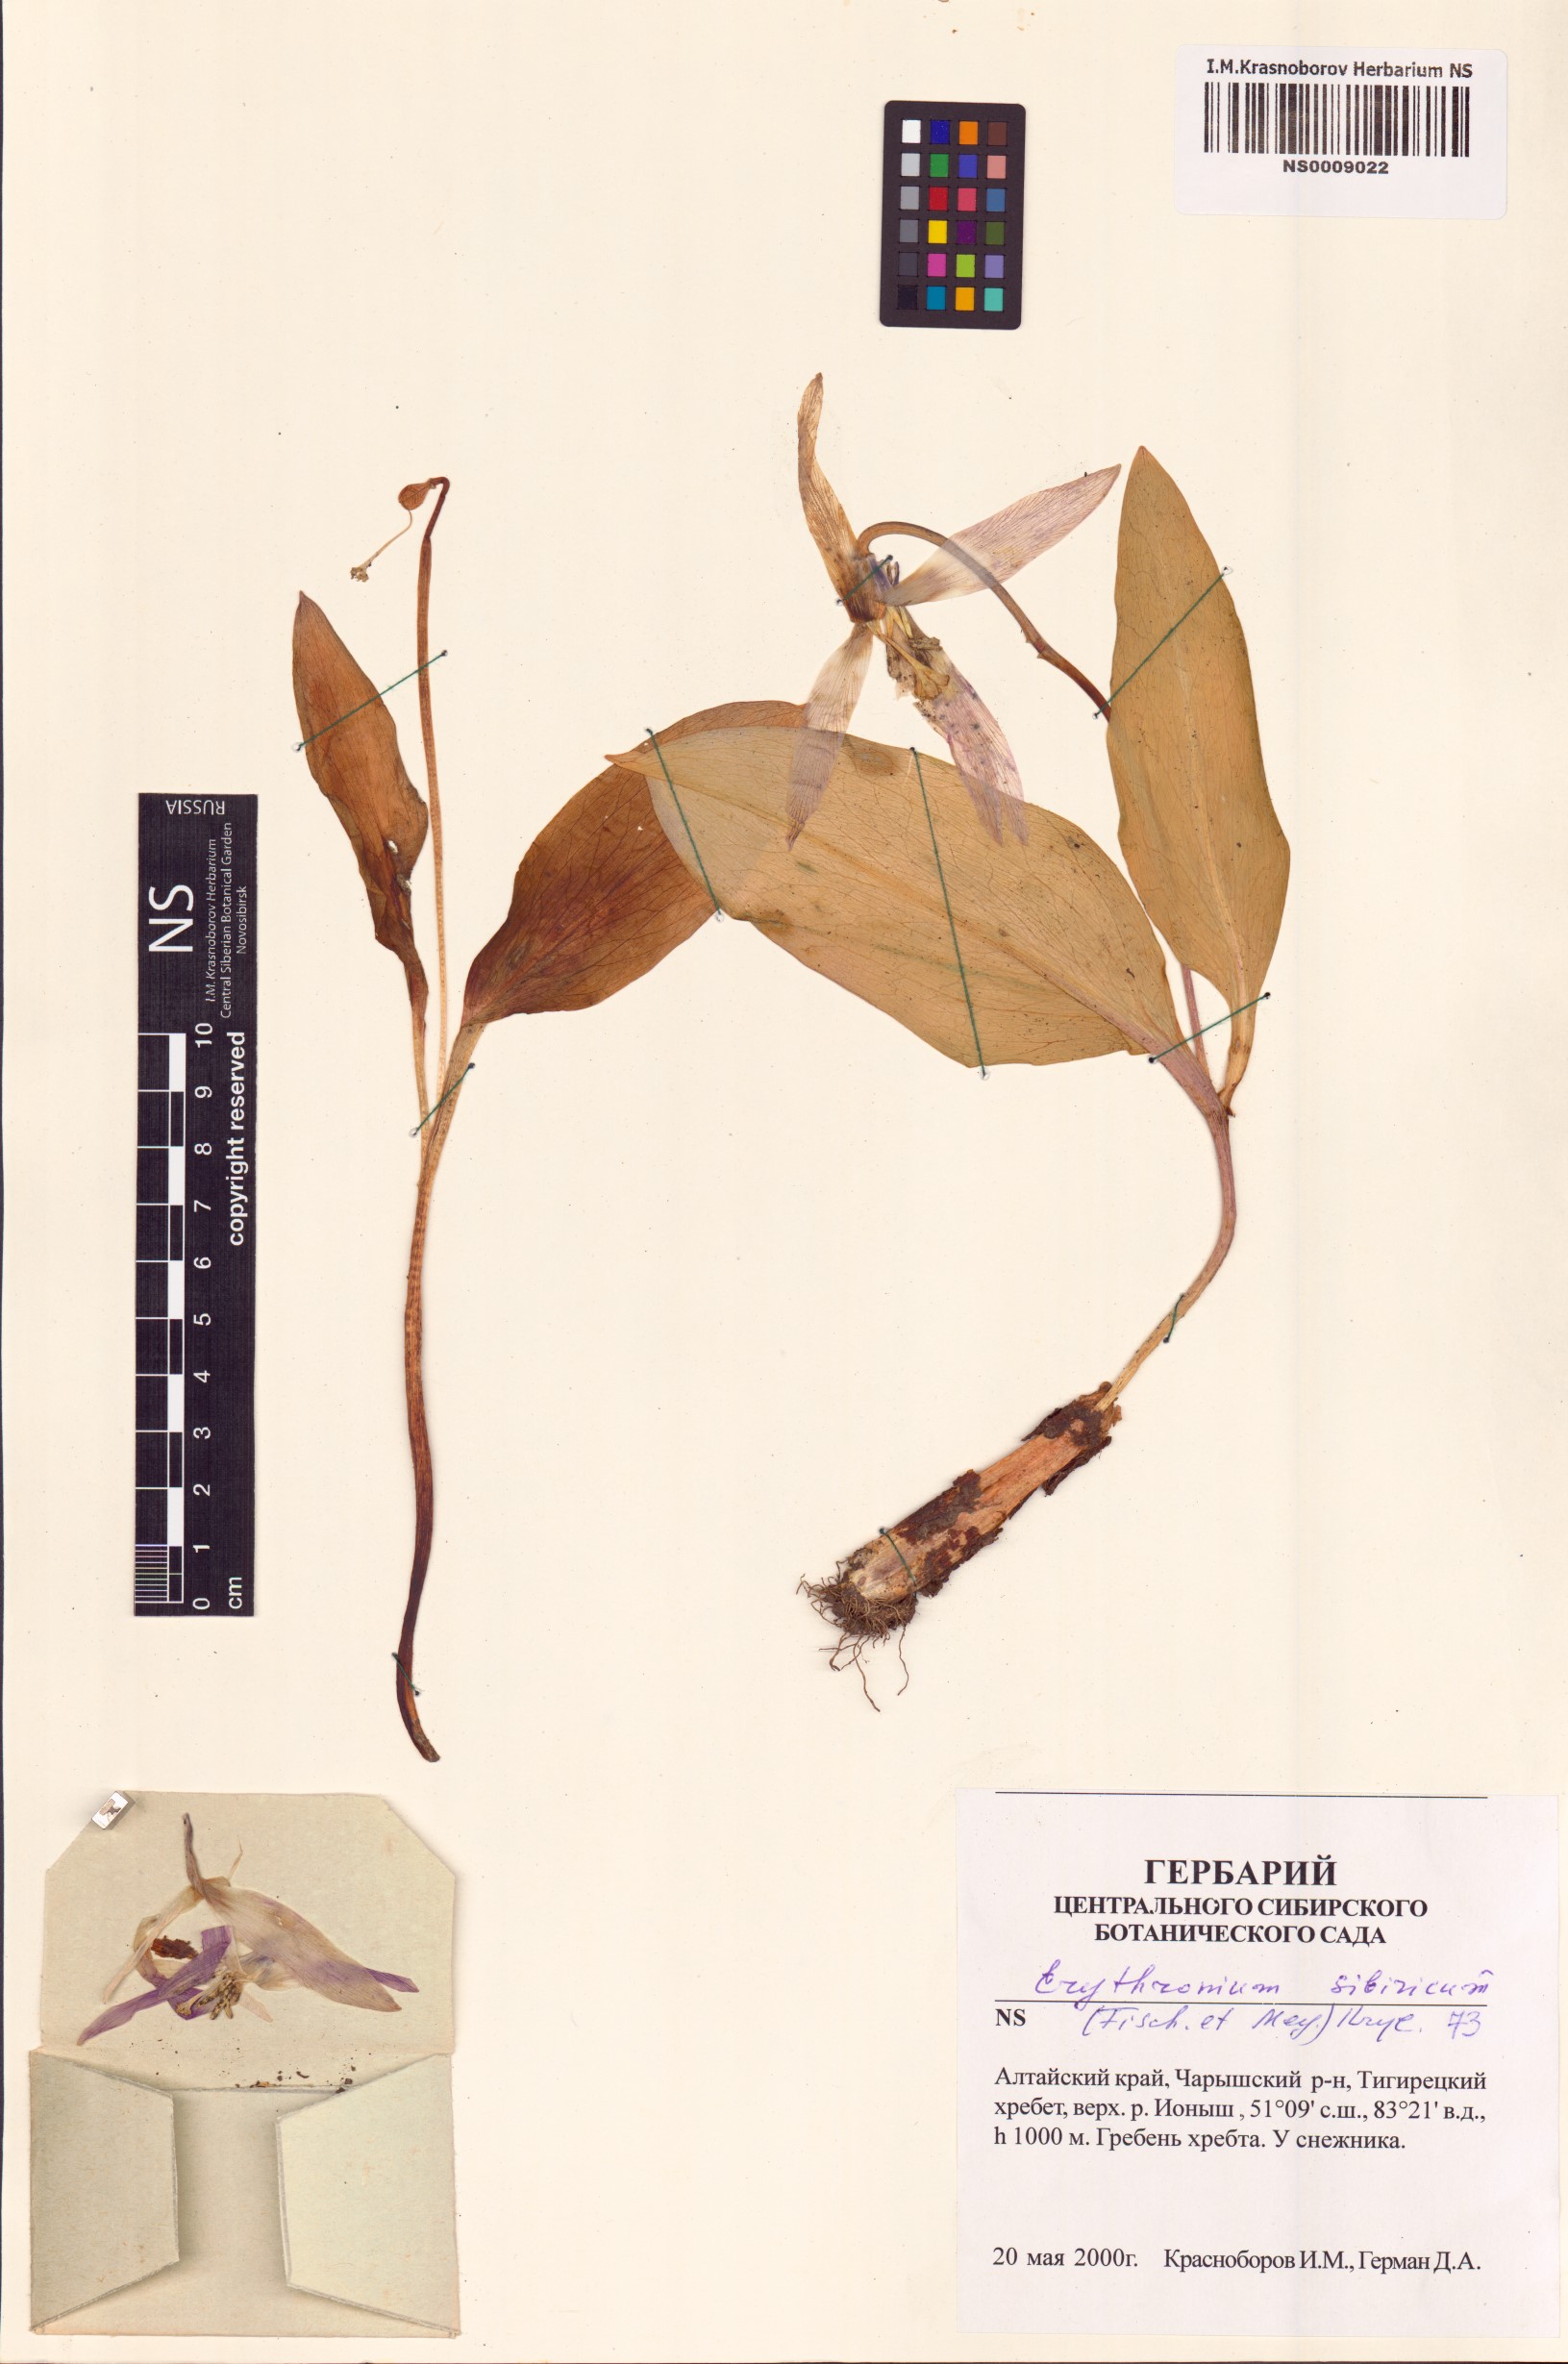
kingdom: Plantae
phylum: Tracheophyta
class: Liliopsida
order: Liliales
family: Liliaceae
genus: Erythronium
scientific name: Erythronium sibiricum
